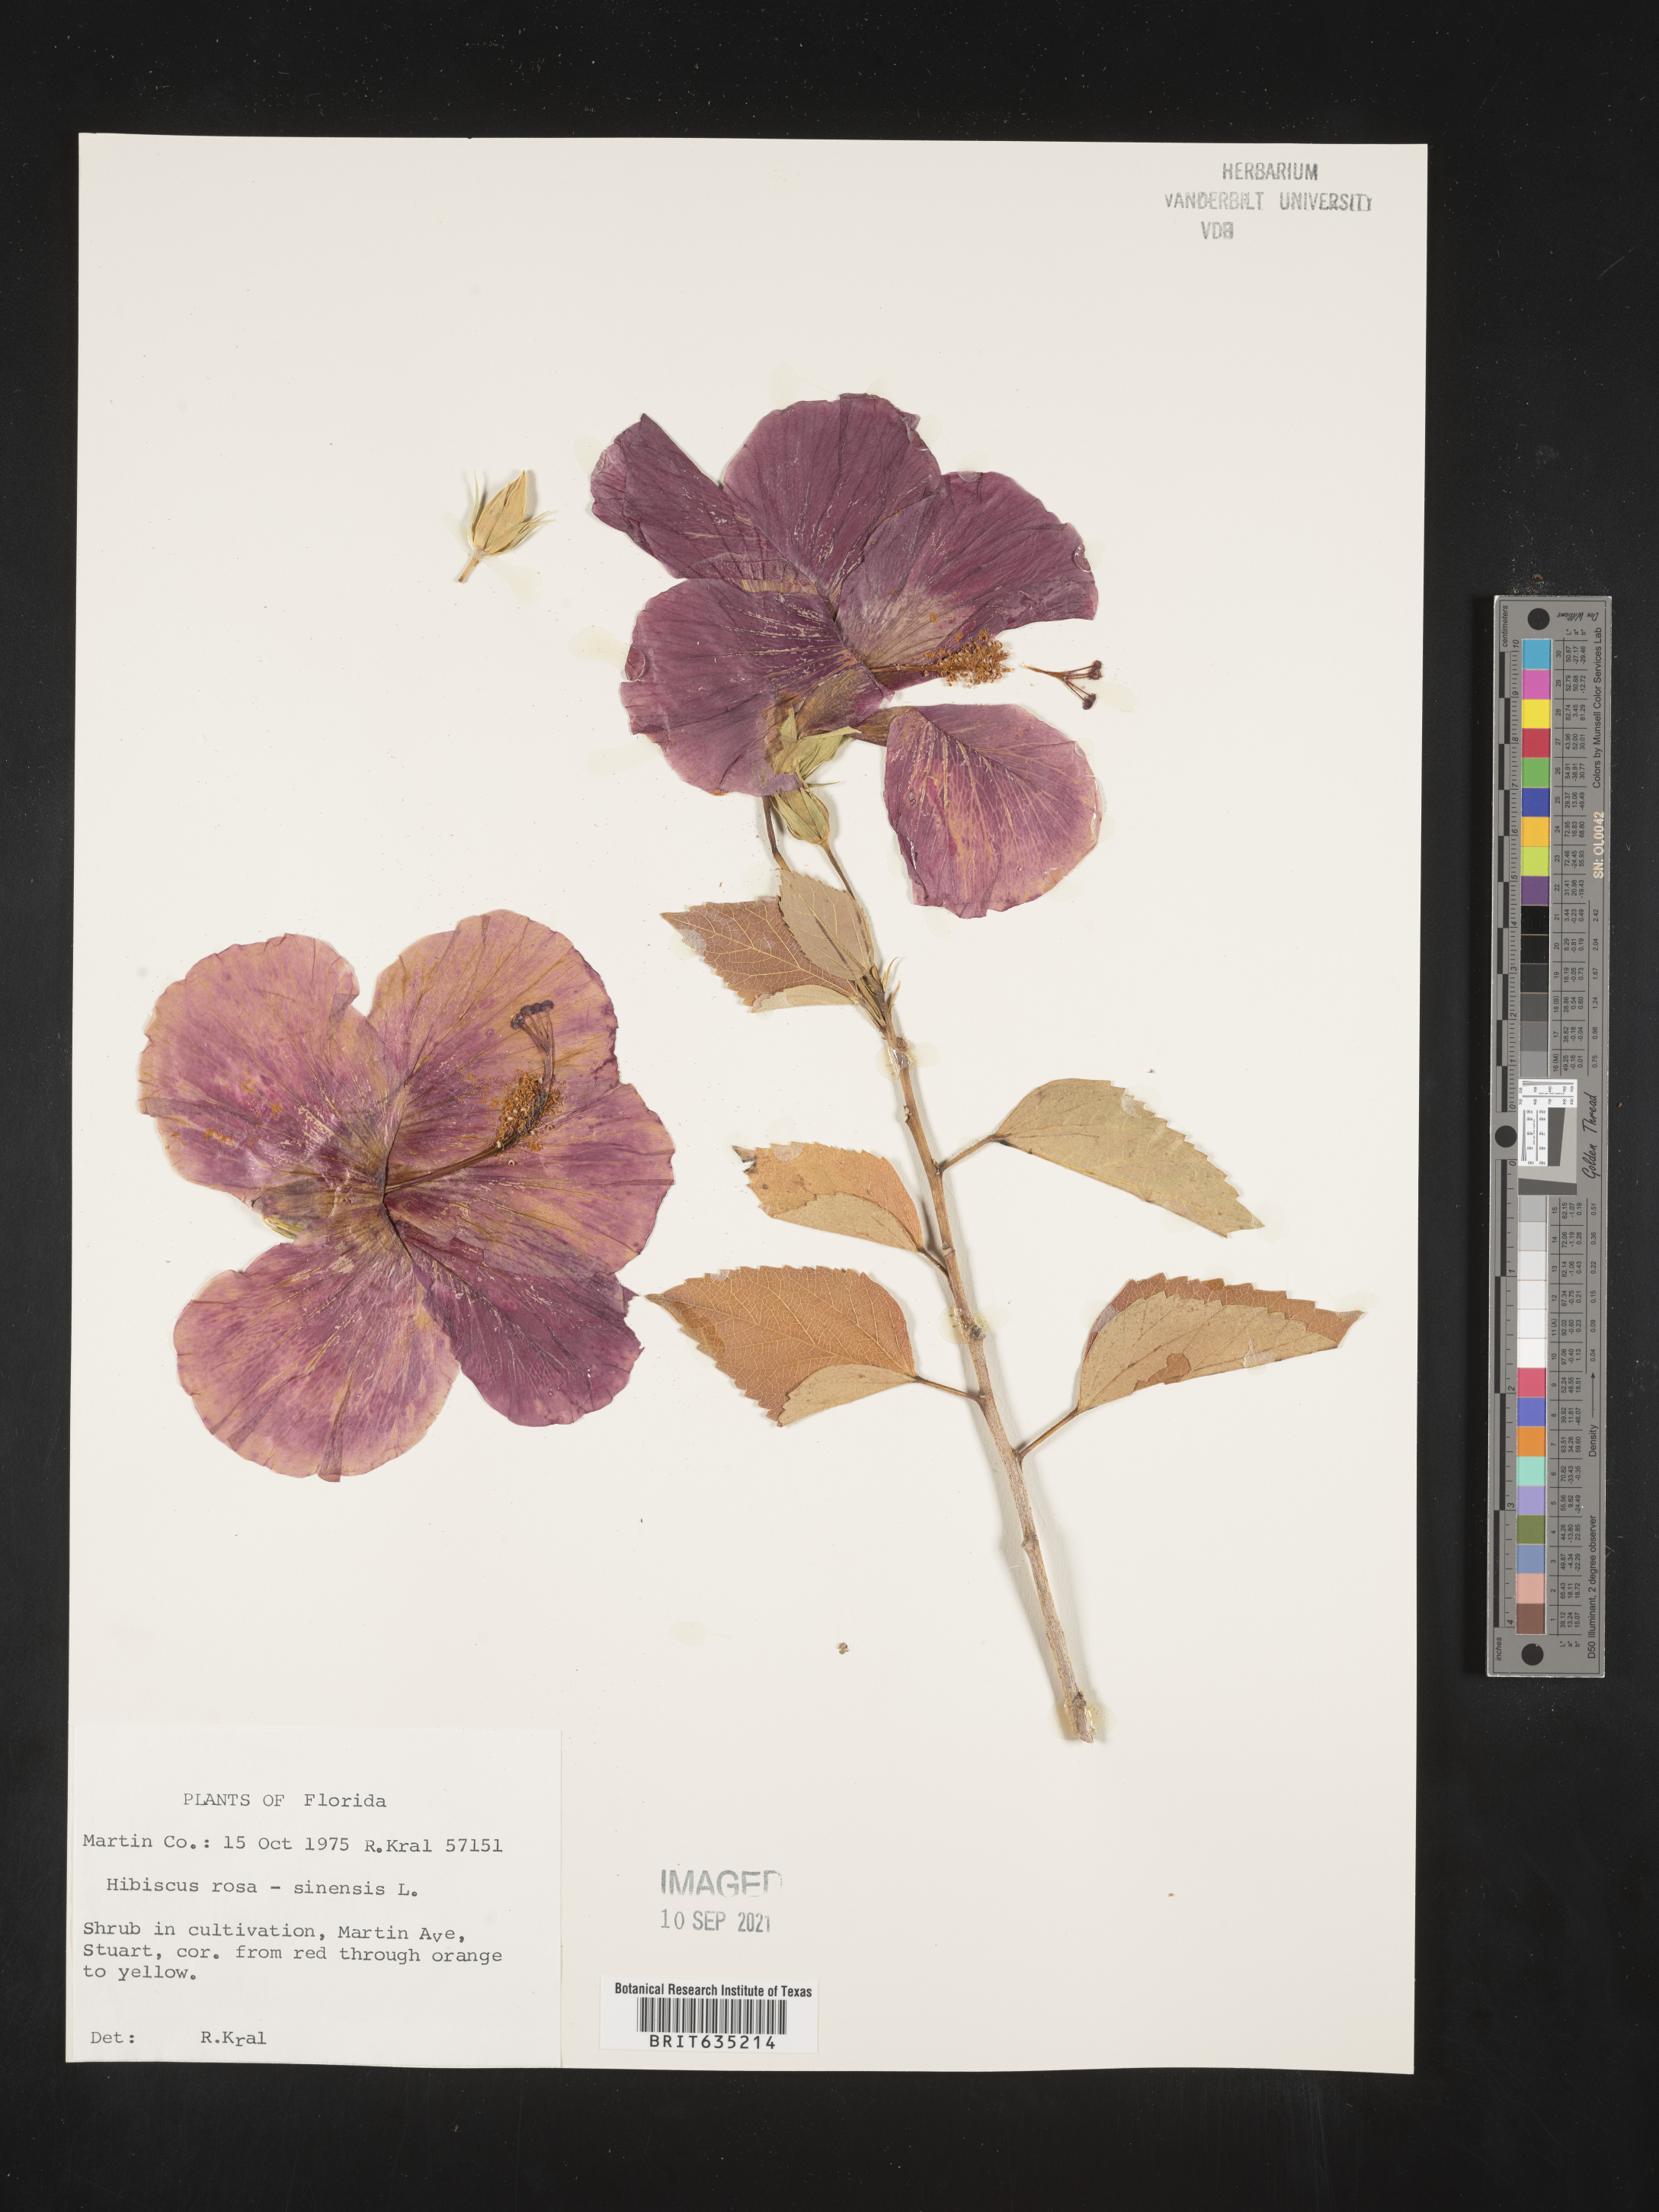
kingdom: Plantae
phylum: Tracheophyta
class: Magnoliopsida
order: Malvales
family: Malvaceae
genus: Hibiscus
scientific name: Hibiscus
